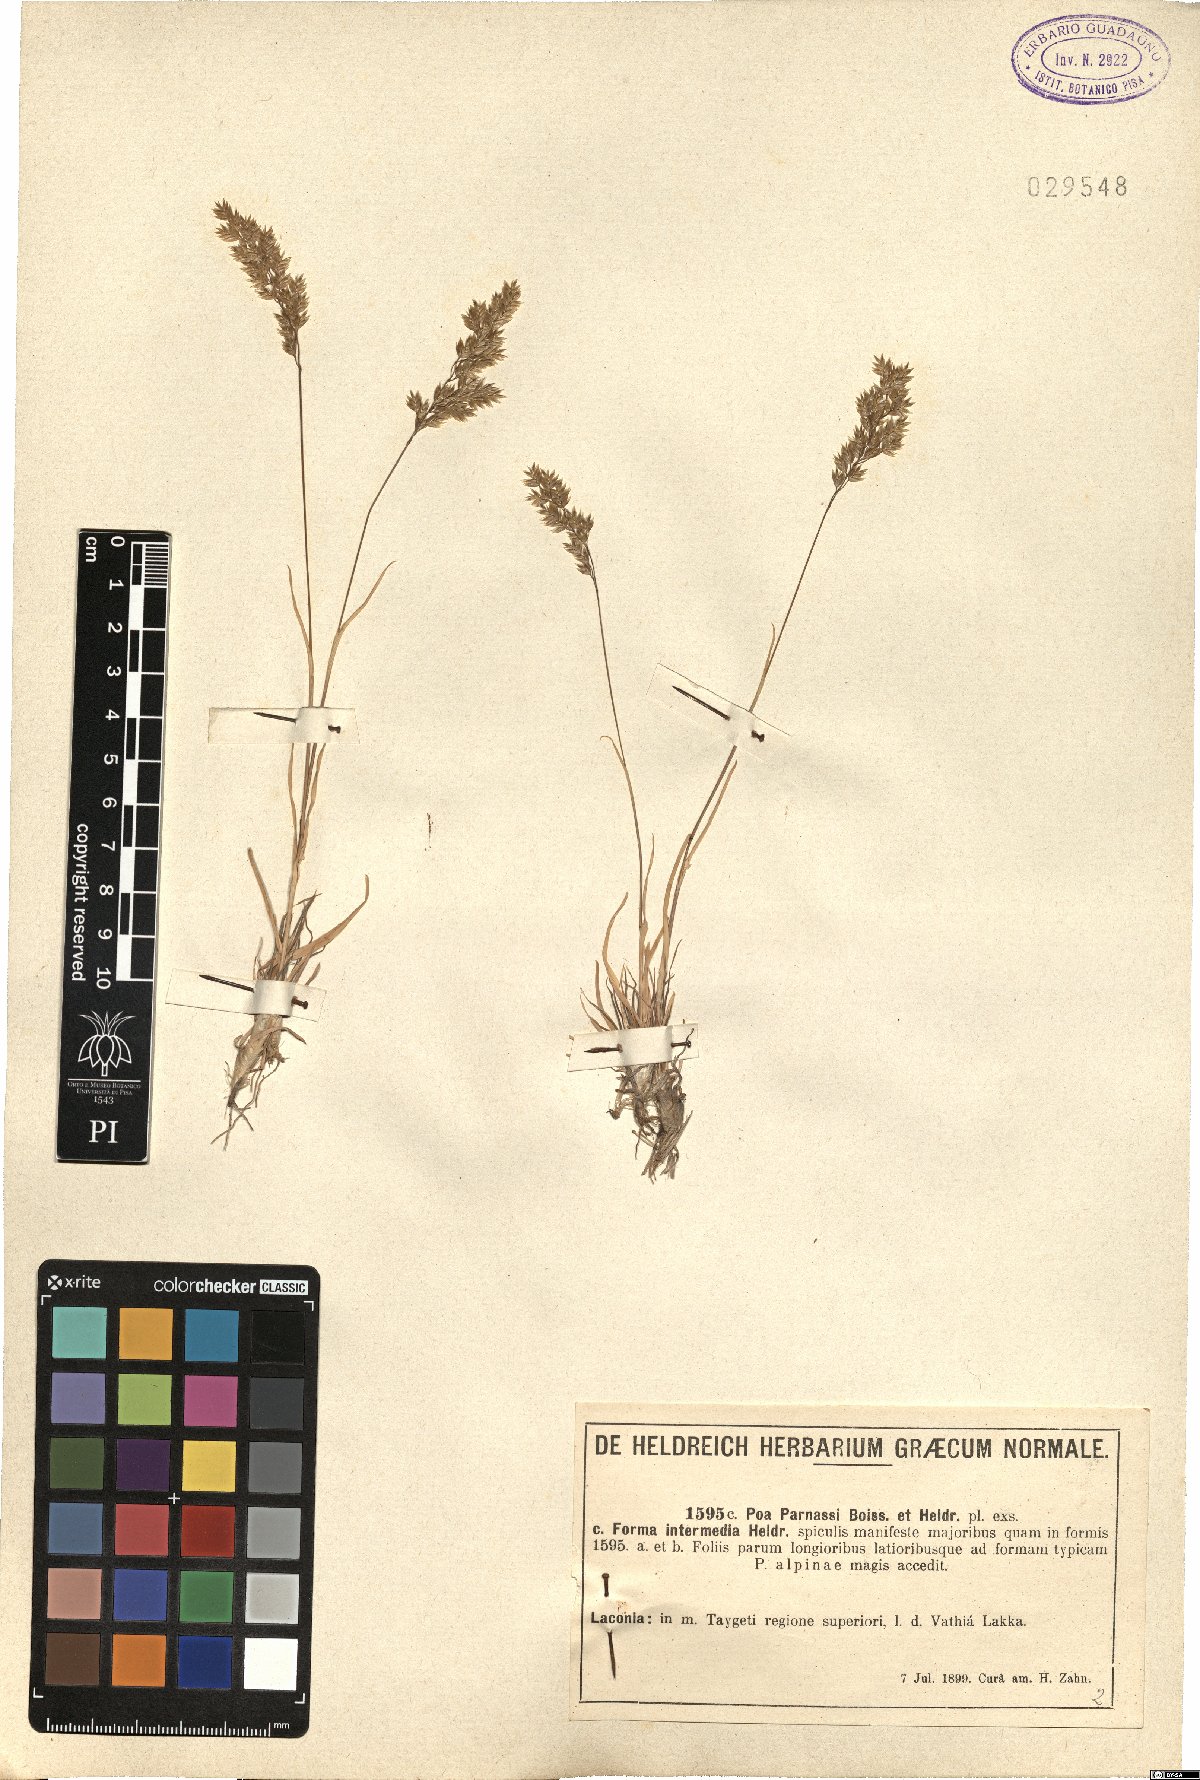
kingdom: Plantae
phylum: Tracheophyta
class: Liliopsida
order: Poales
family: Poaceae
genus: Poa
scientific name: Poa alpina
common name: Alpine bluegrass
